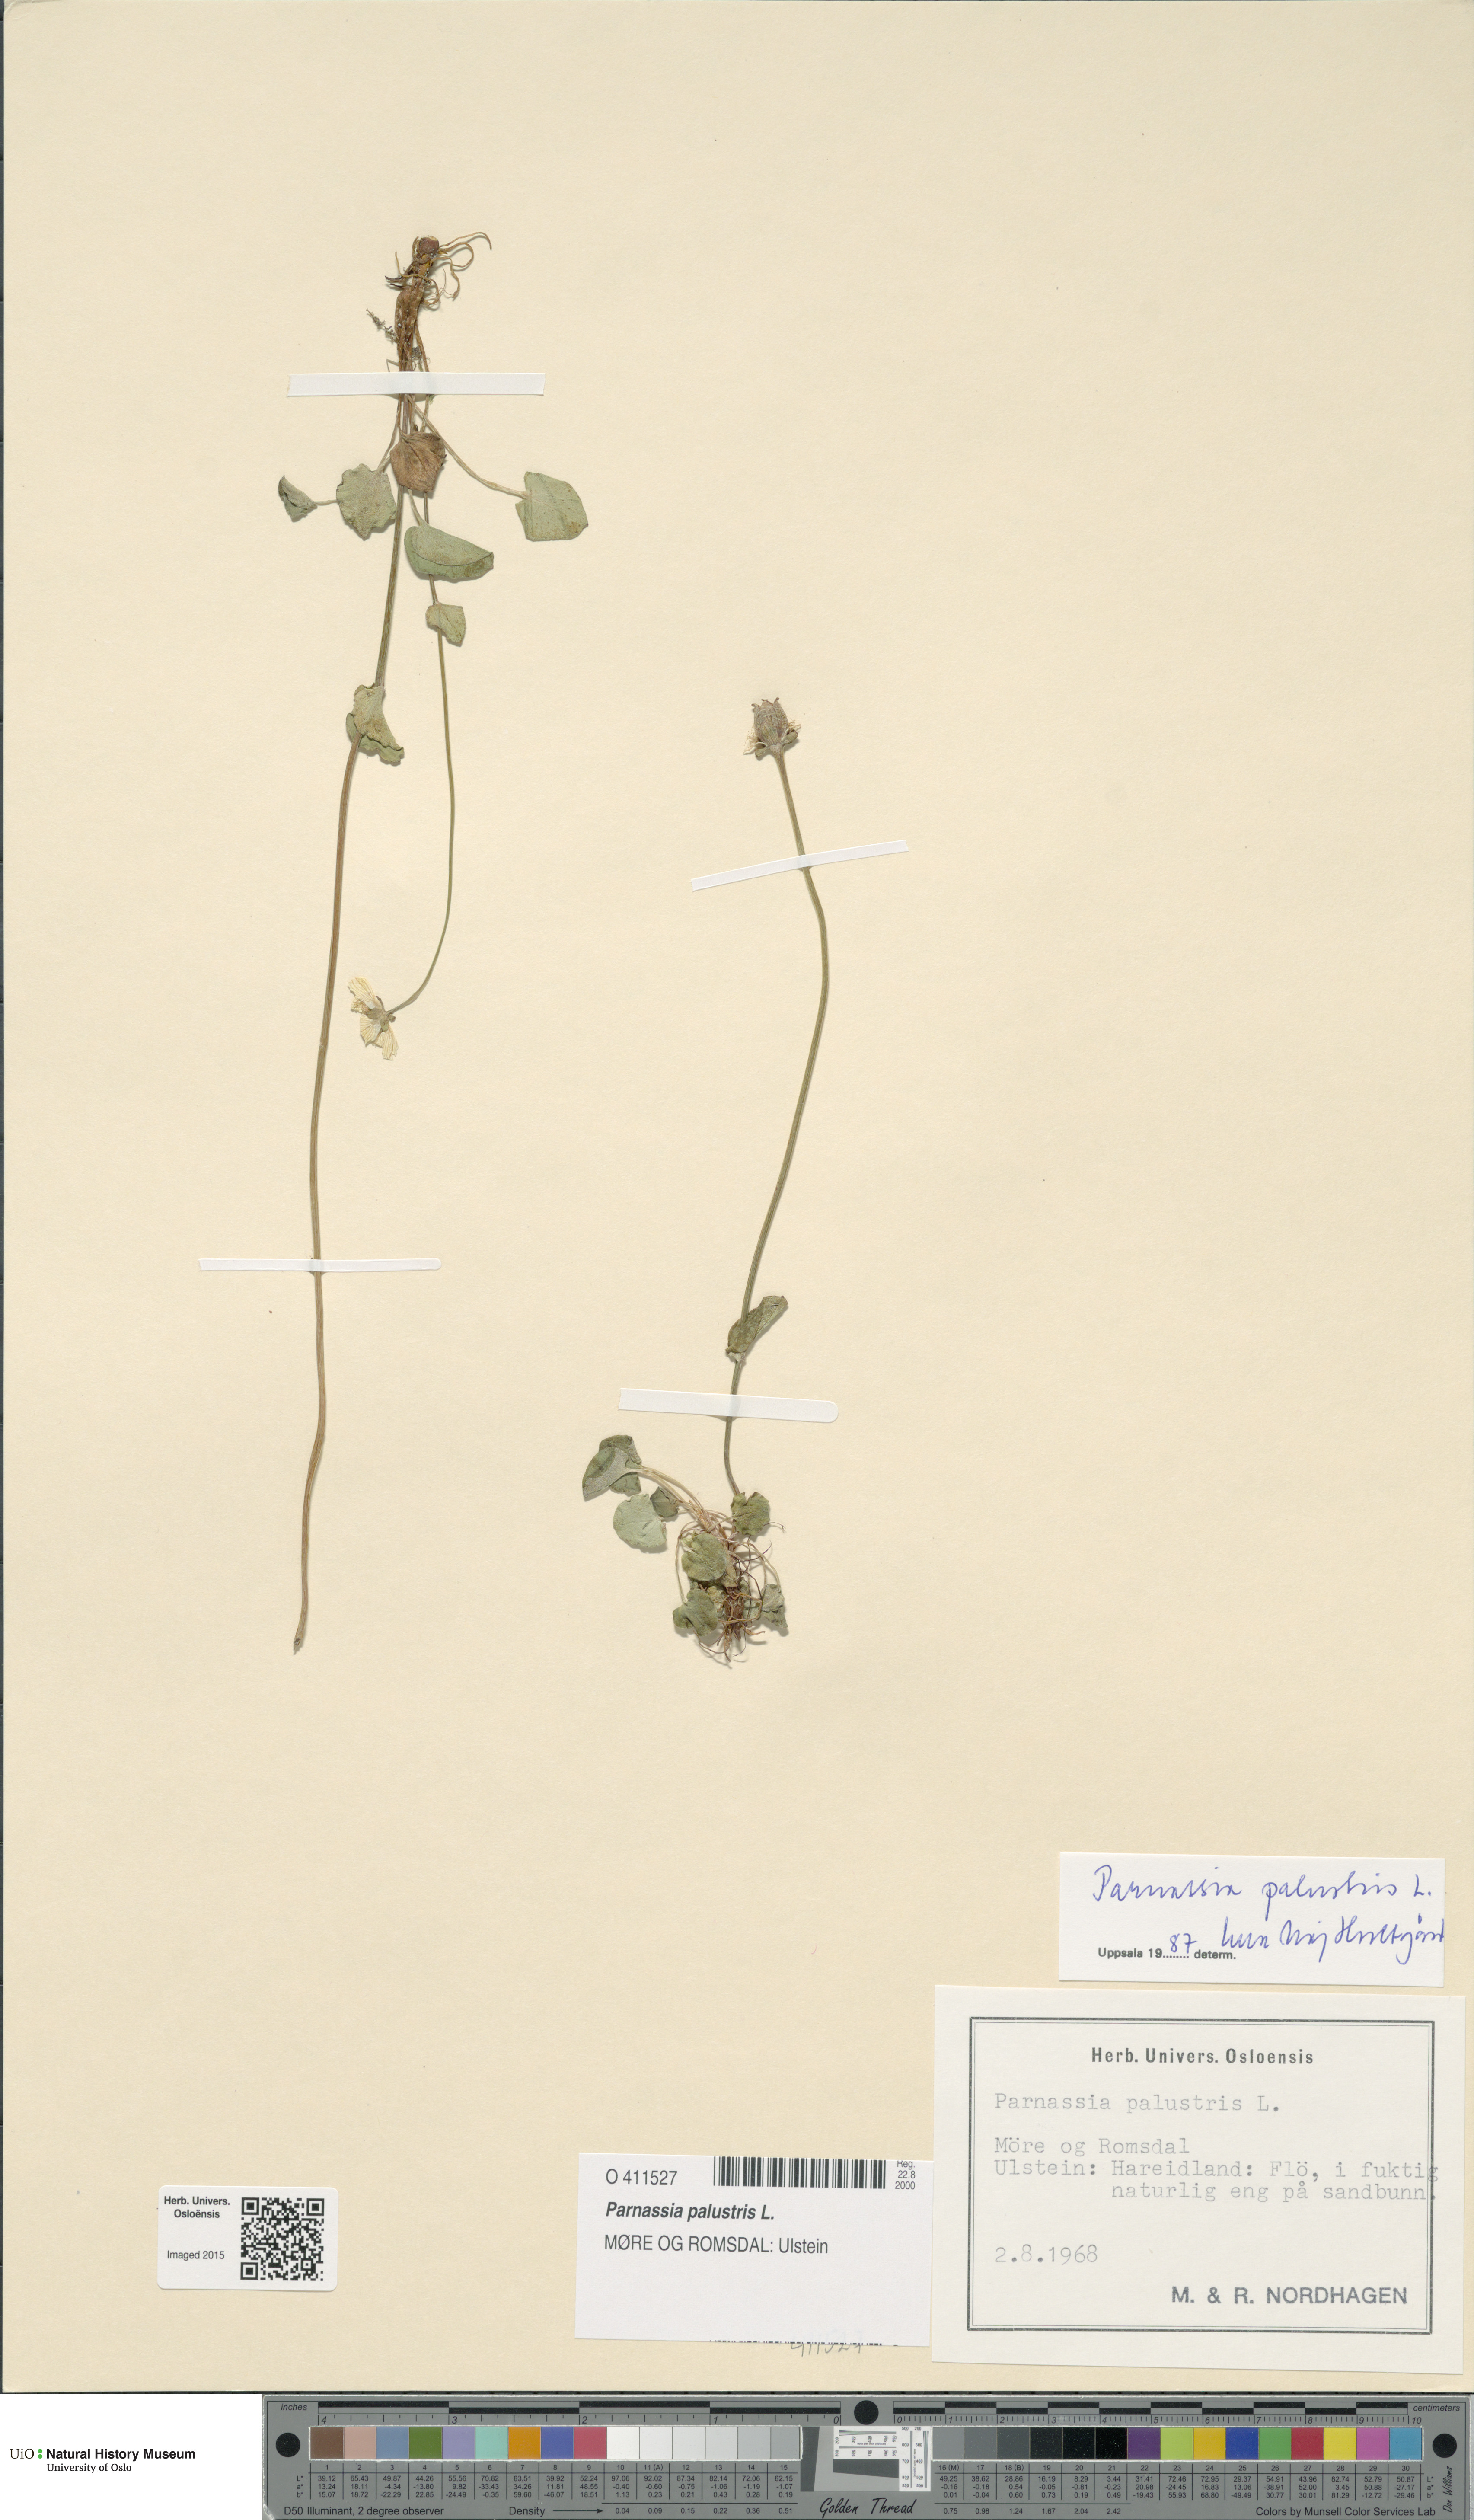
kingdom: Plantae
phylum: Tracheophyta
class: Magnoliopsida
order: Celastrales
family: Parnassiaceae
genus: Parnassia
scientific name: Parnassia palustris
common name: Grass-of-parnassus
